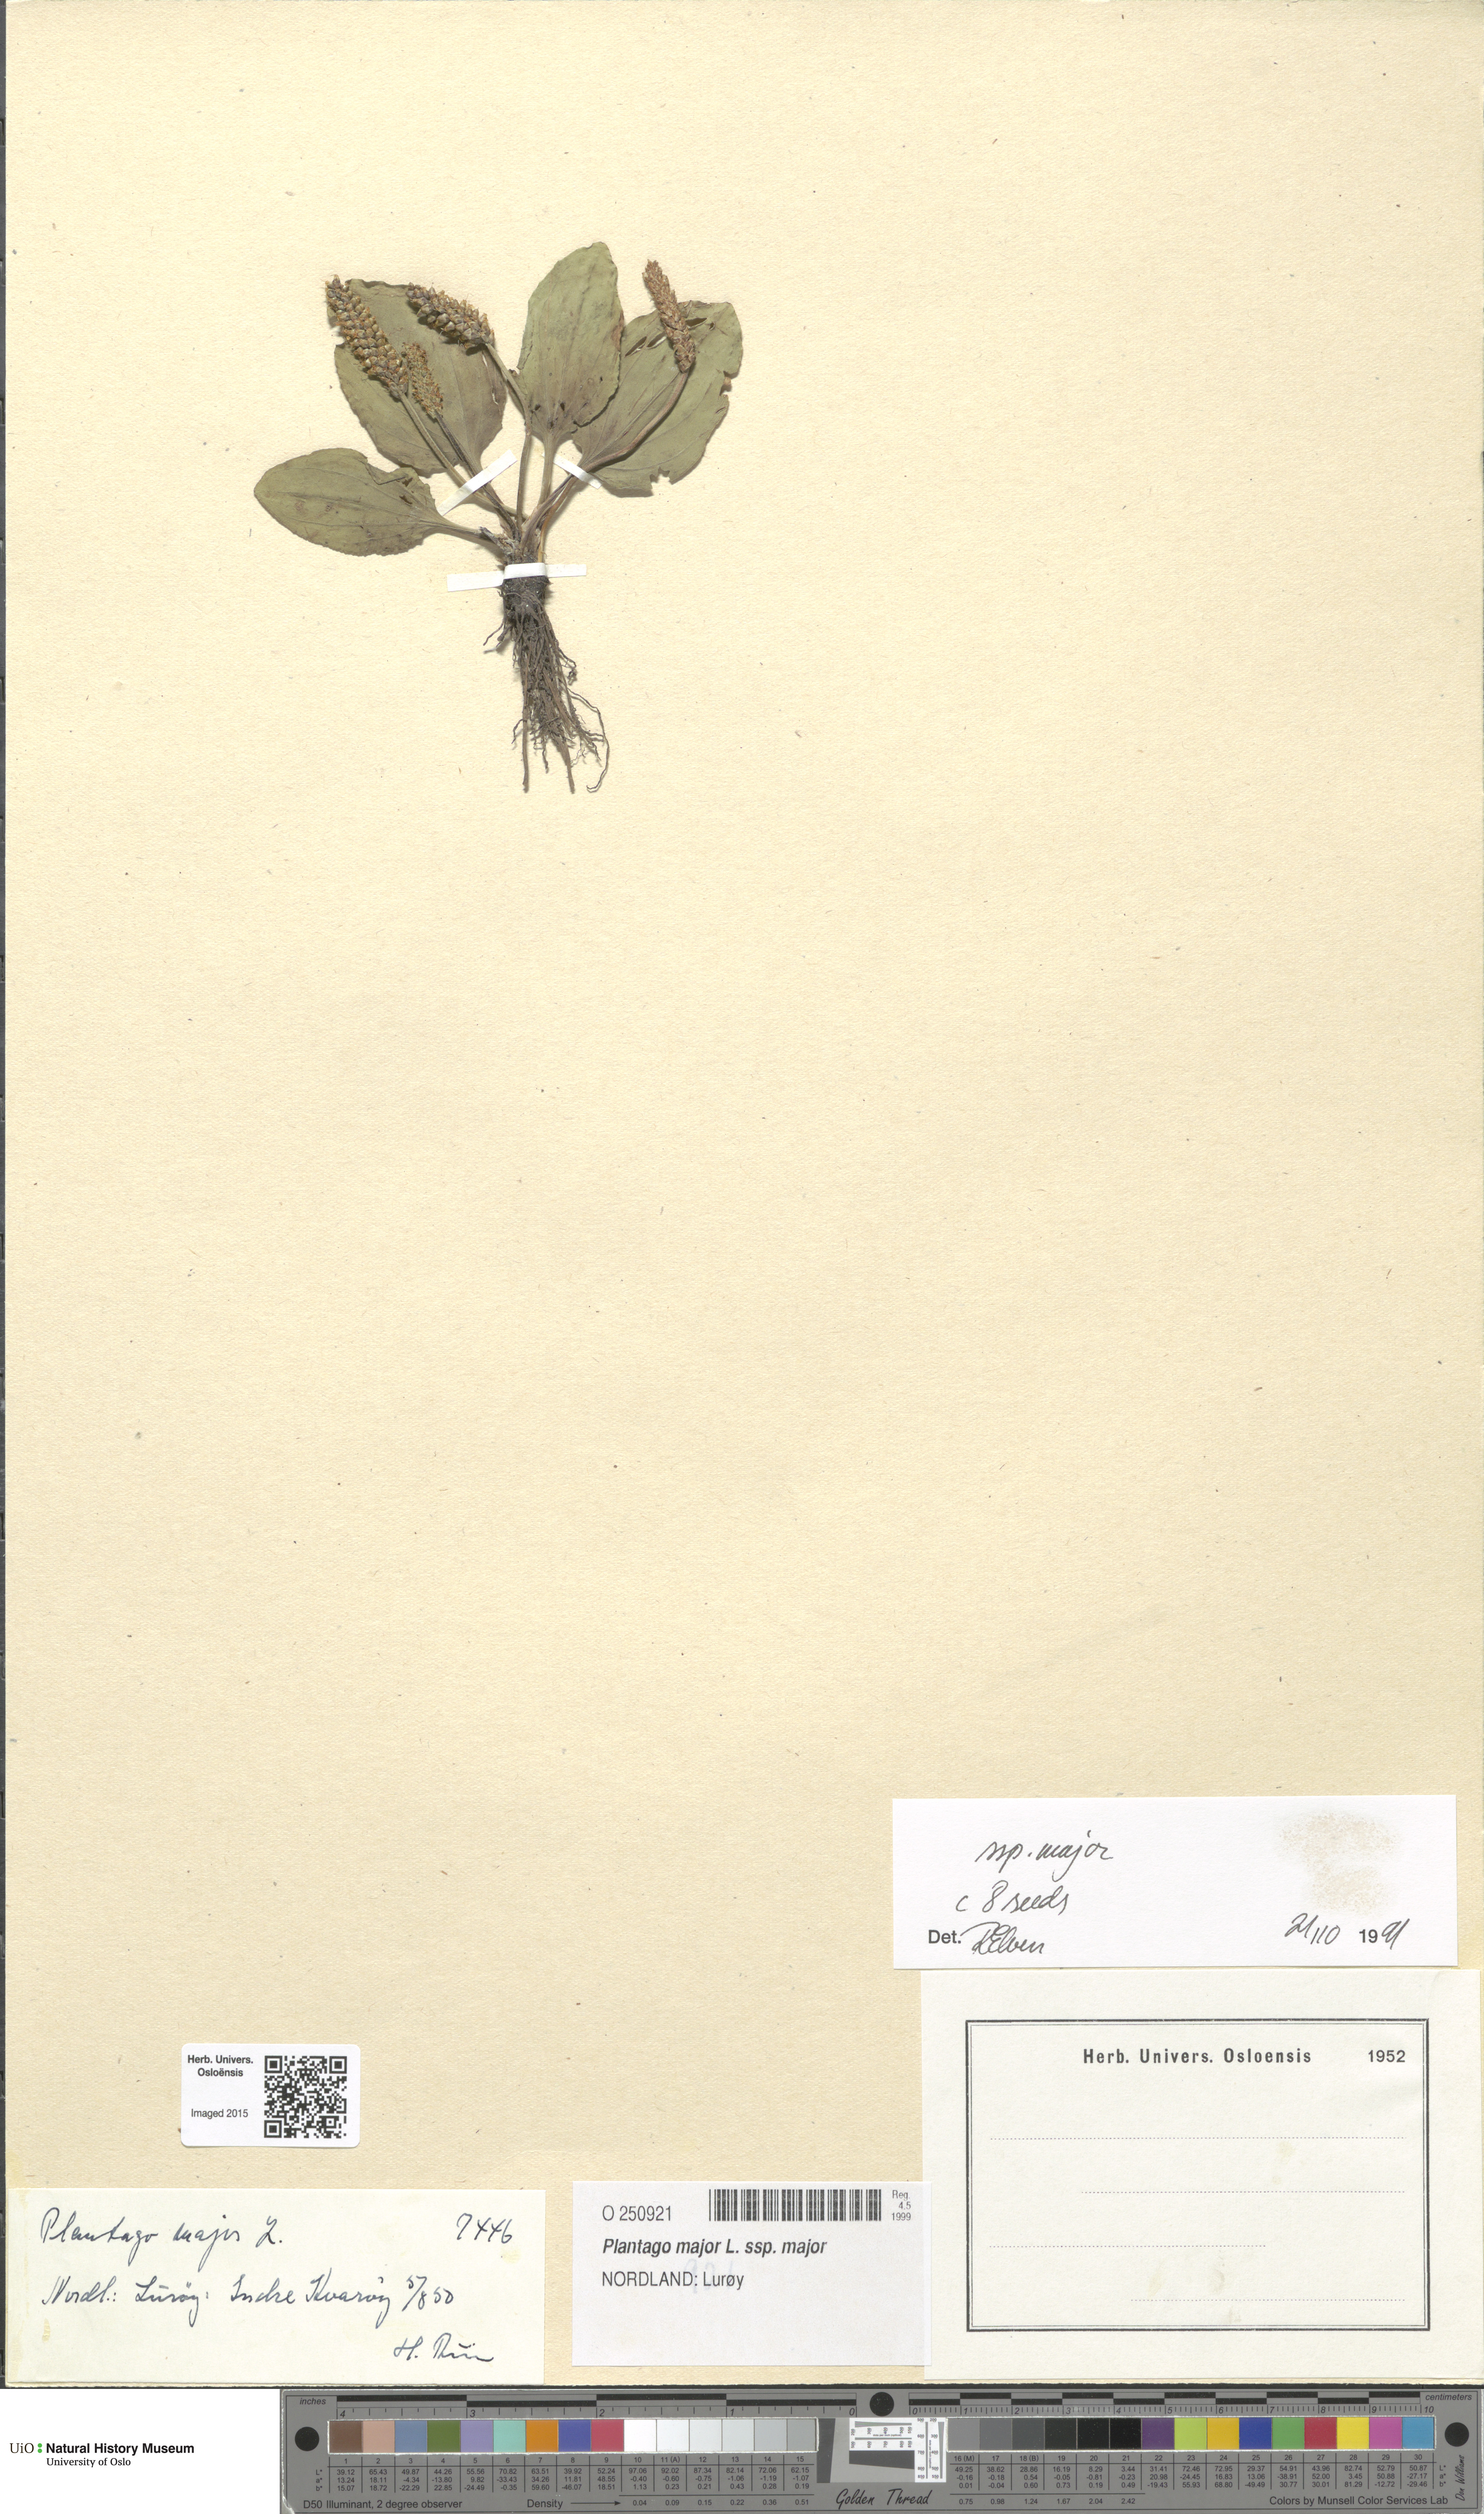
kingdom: Plantae
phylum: Tracheophyta
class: Magnoliopsida
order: Lamiales
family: Plantaginaceae
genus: Plantago
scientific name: Plantago major
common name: Common plantain
